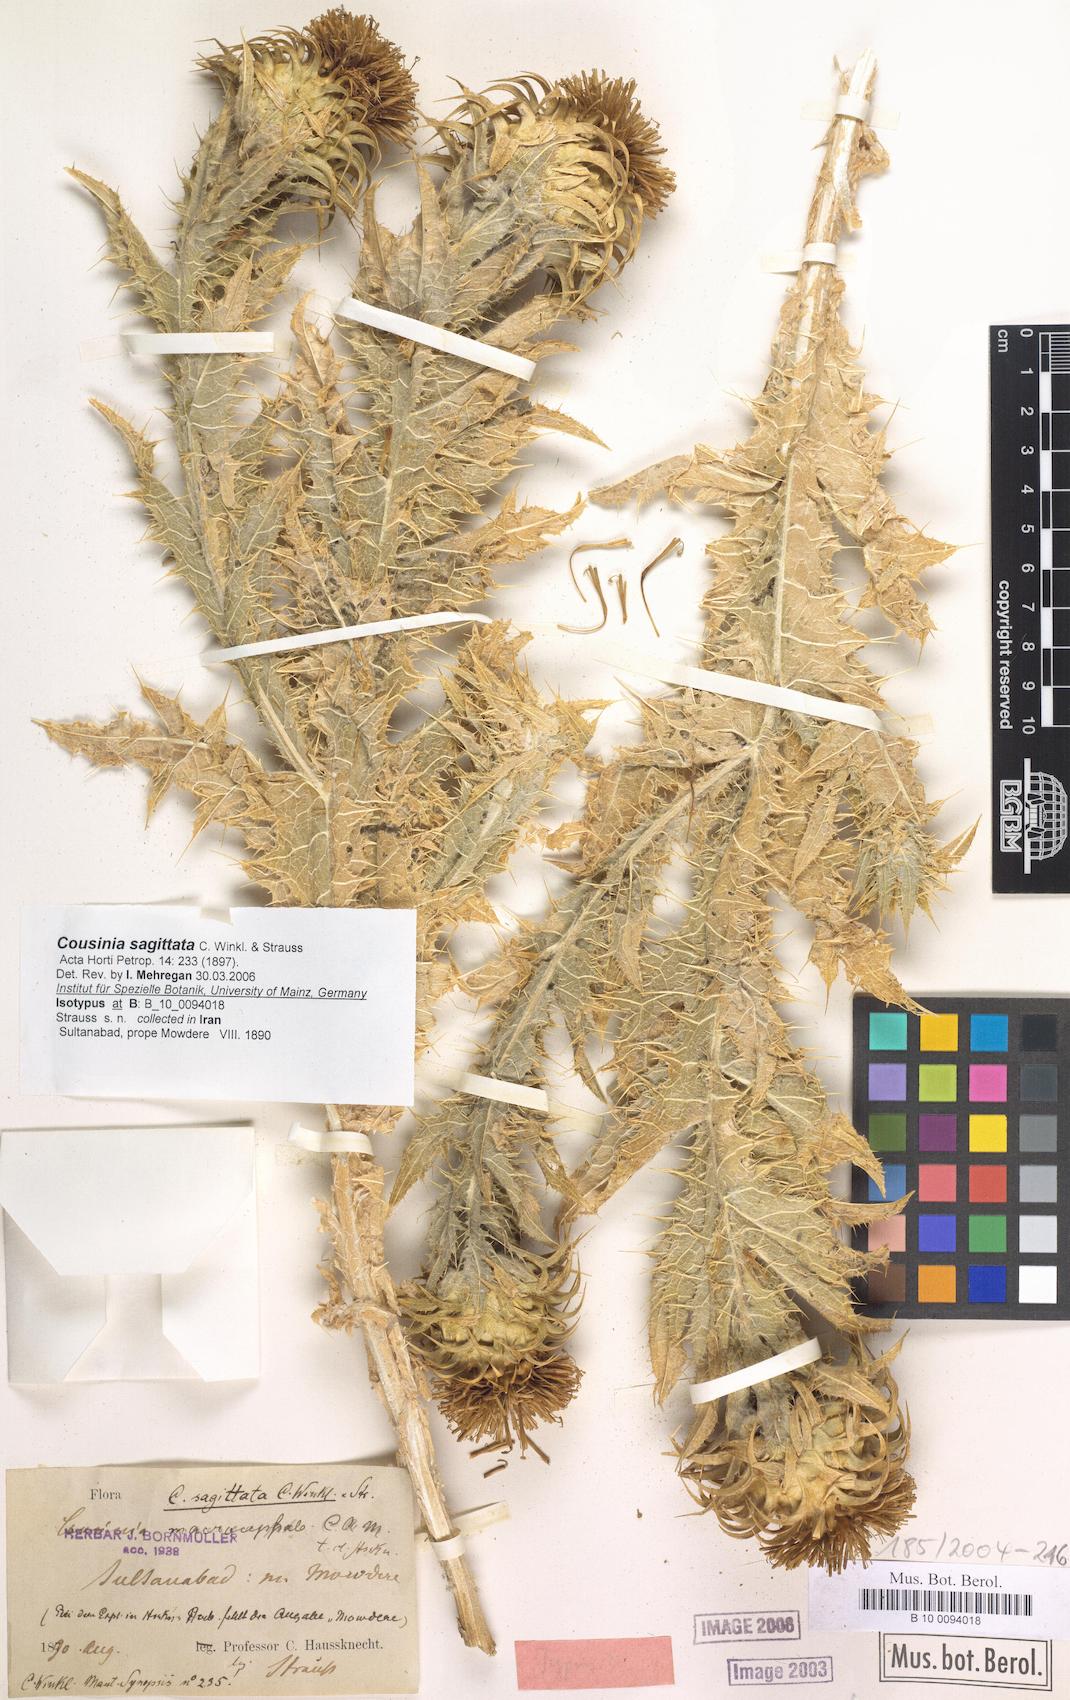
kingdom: Plantae
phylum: Tracheophyta
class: Magnoliopsida
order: Asterales
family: Asteraceae
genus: Cousinia
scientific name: Cousinia sagittata
